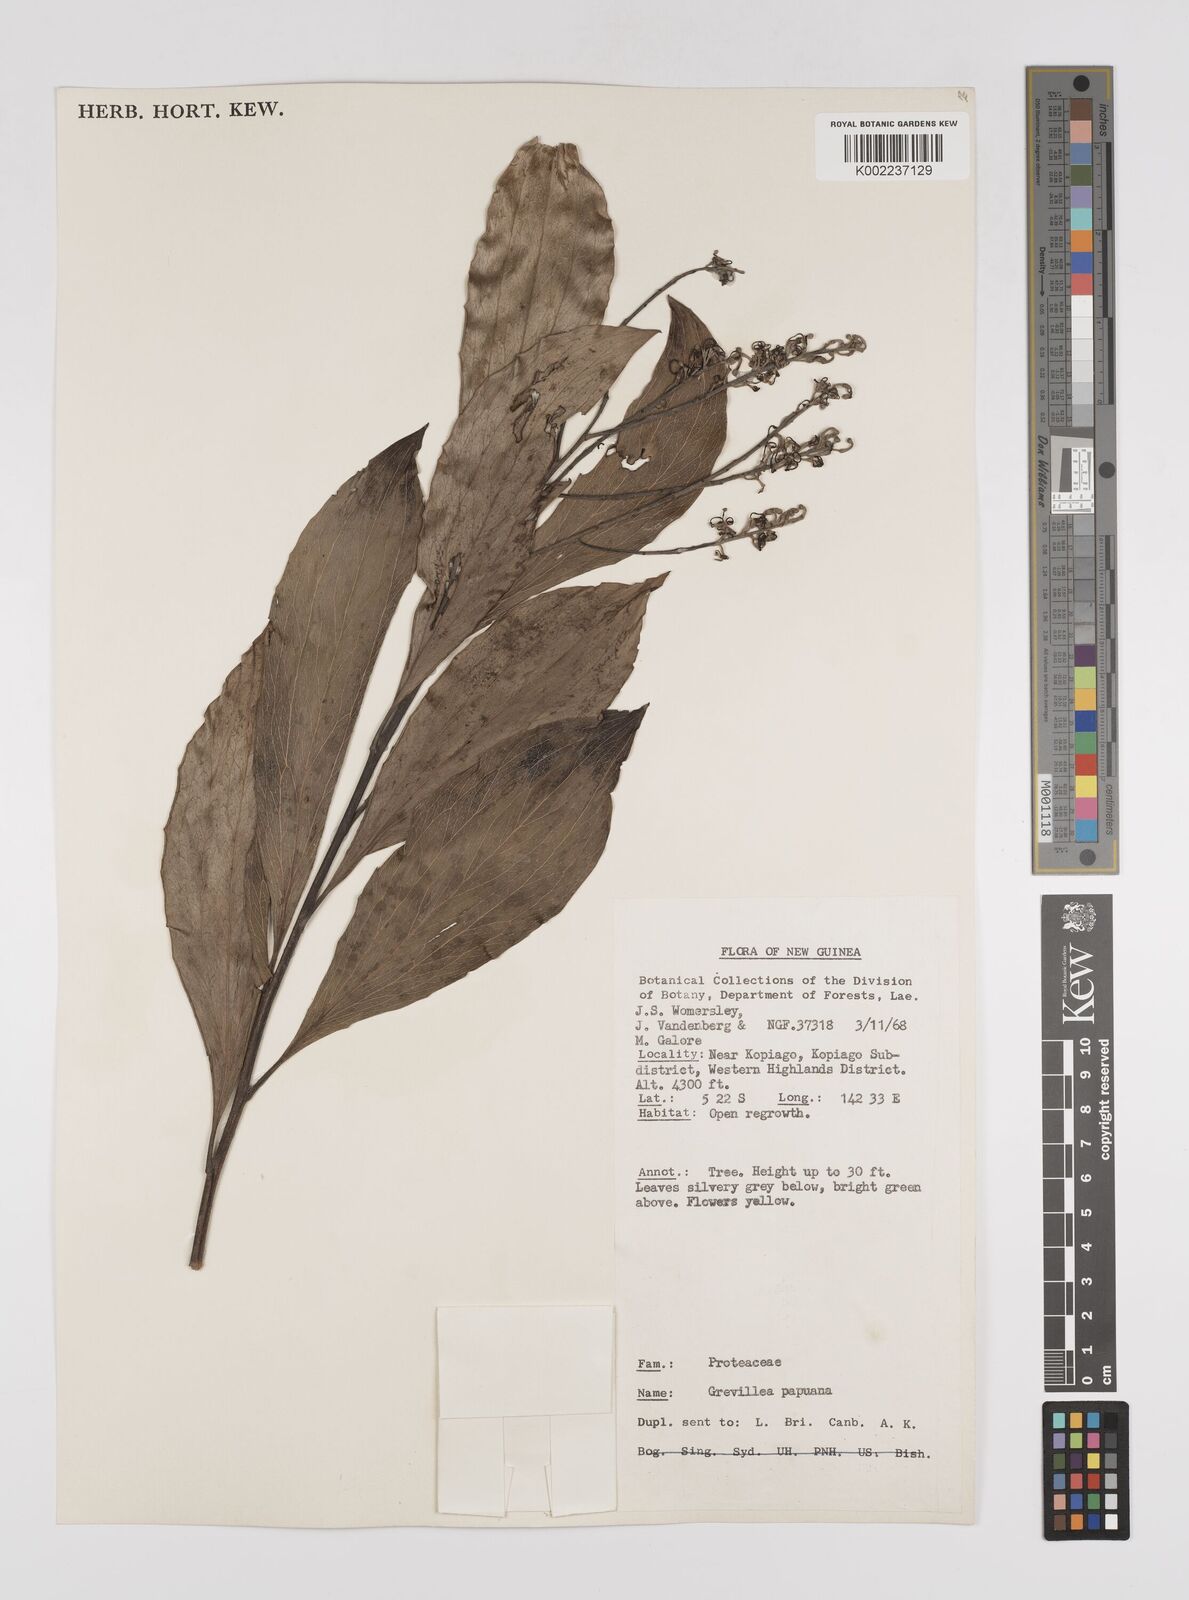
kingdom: Plantae
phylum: Tracheophyta
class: Magnoliopsida
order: Proteales
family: Proteaceae
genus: Grevillea
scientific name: Grevillea papuana
